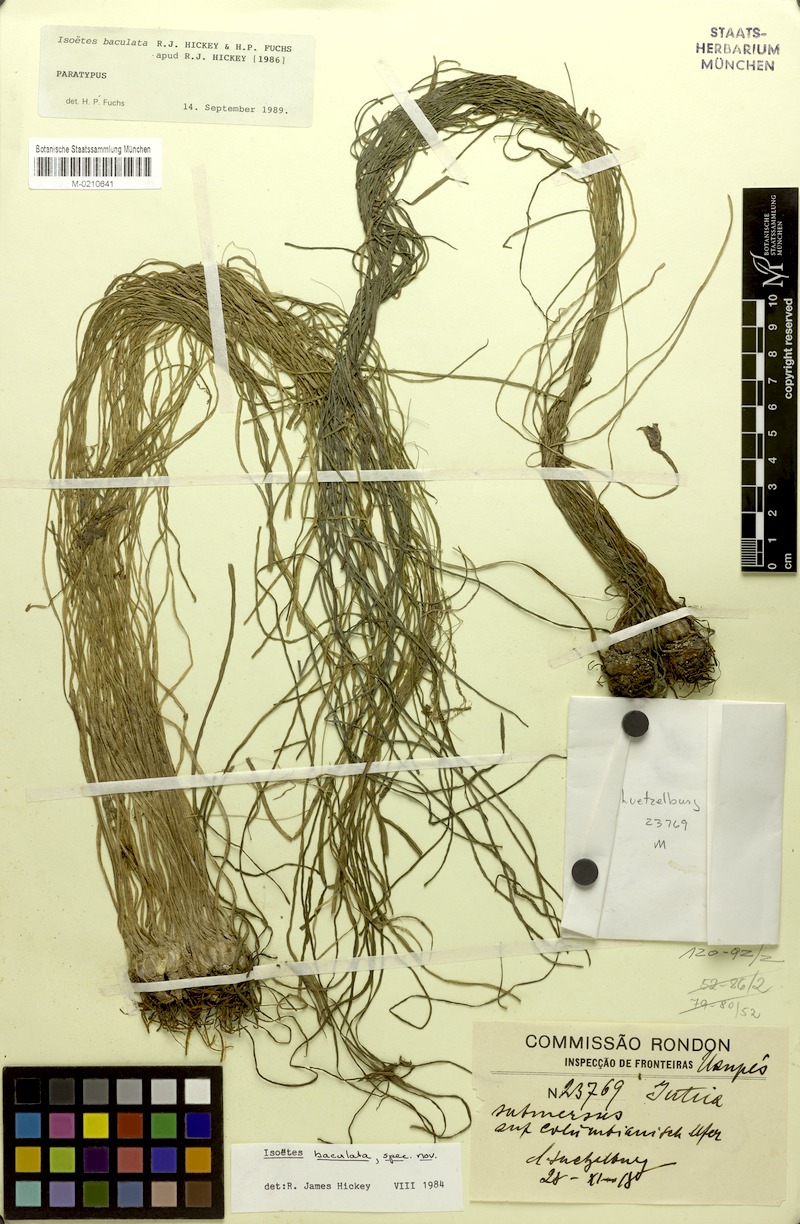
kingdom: Plantae
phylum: Tracheophyta
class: Lycopodiopsida
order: Isoetales
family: Isoetaceae
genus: Isoetes
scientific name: Isoetes baculata
